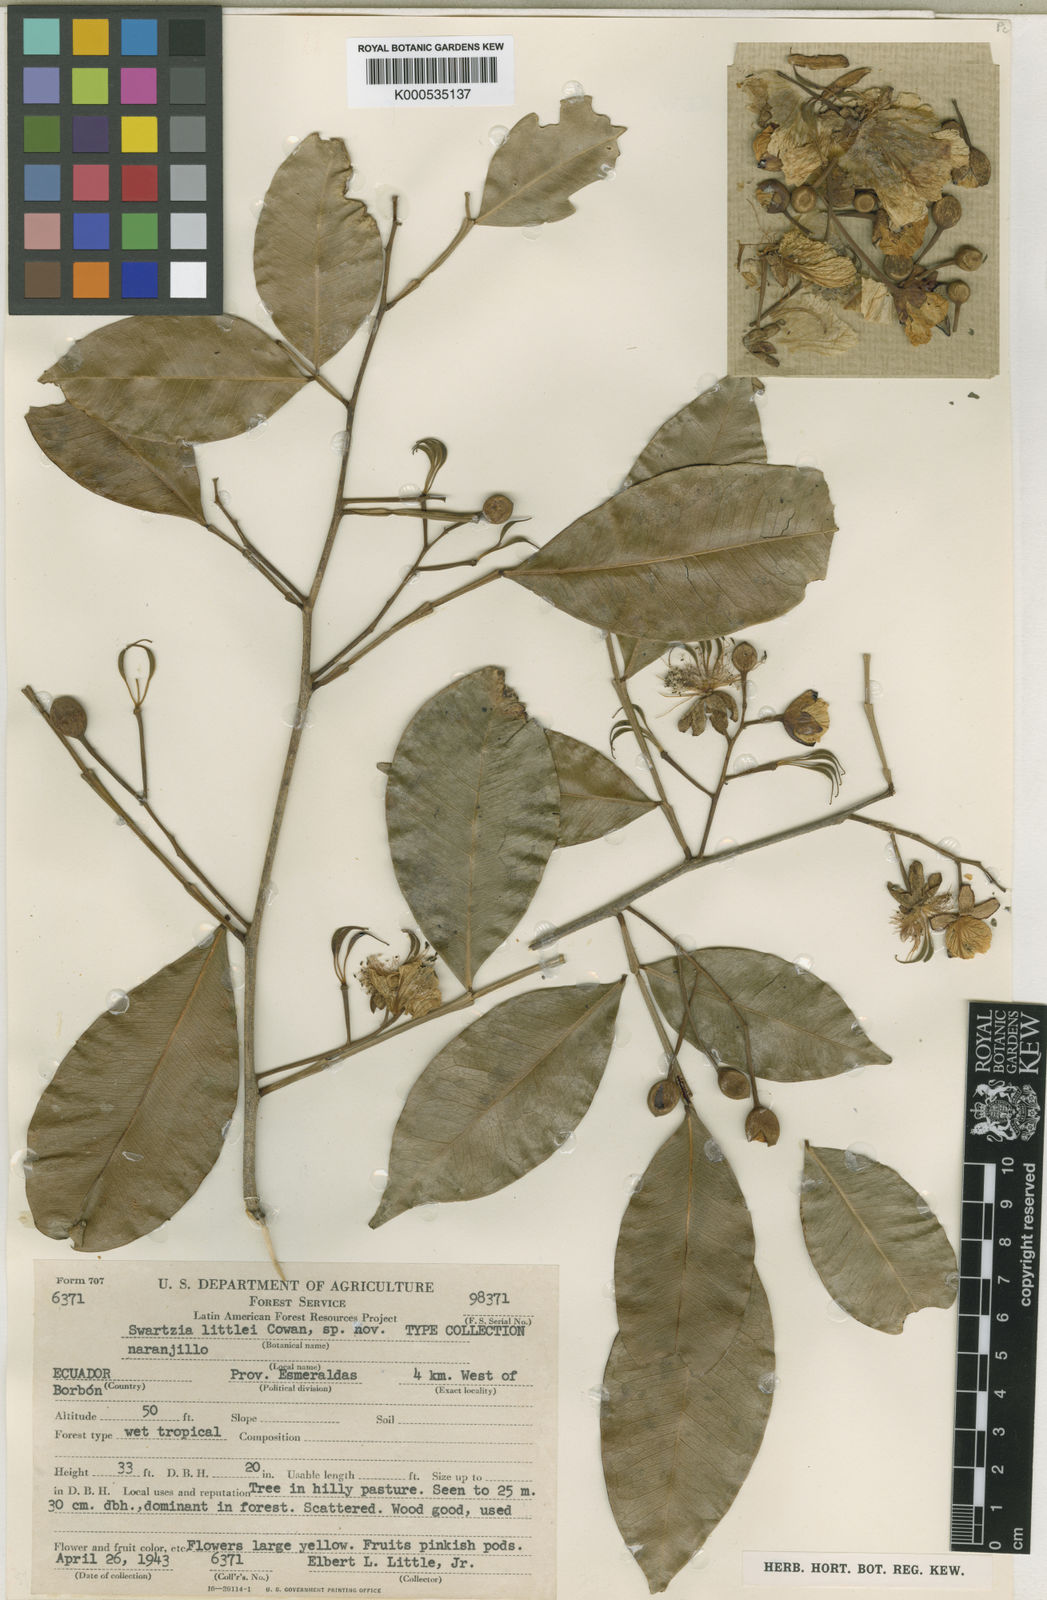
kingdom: Plantae
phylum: Tracheophyta
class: Magnoliopsida
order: Fabales
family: Fabaceae
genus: Swartzia
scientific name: Swartzia littlei
